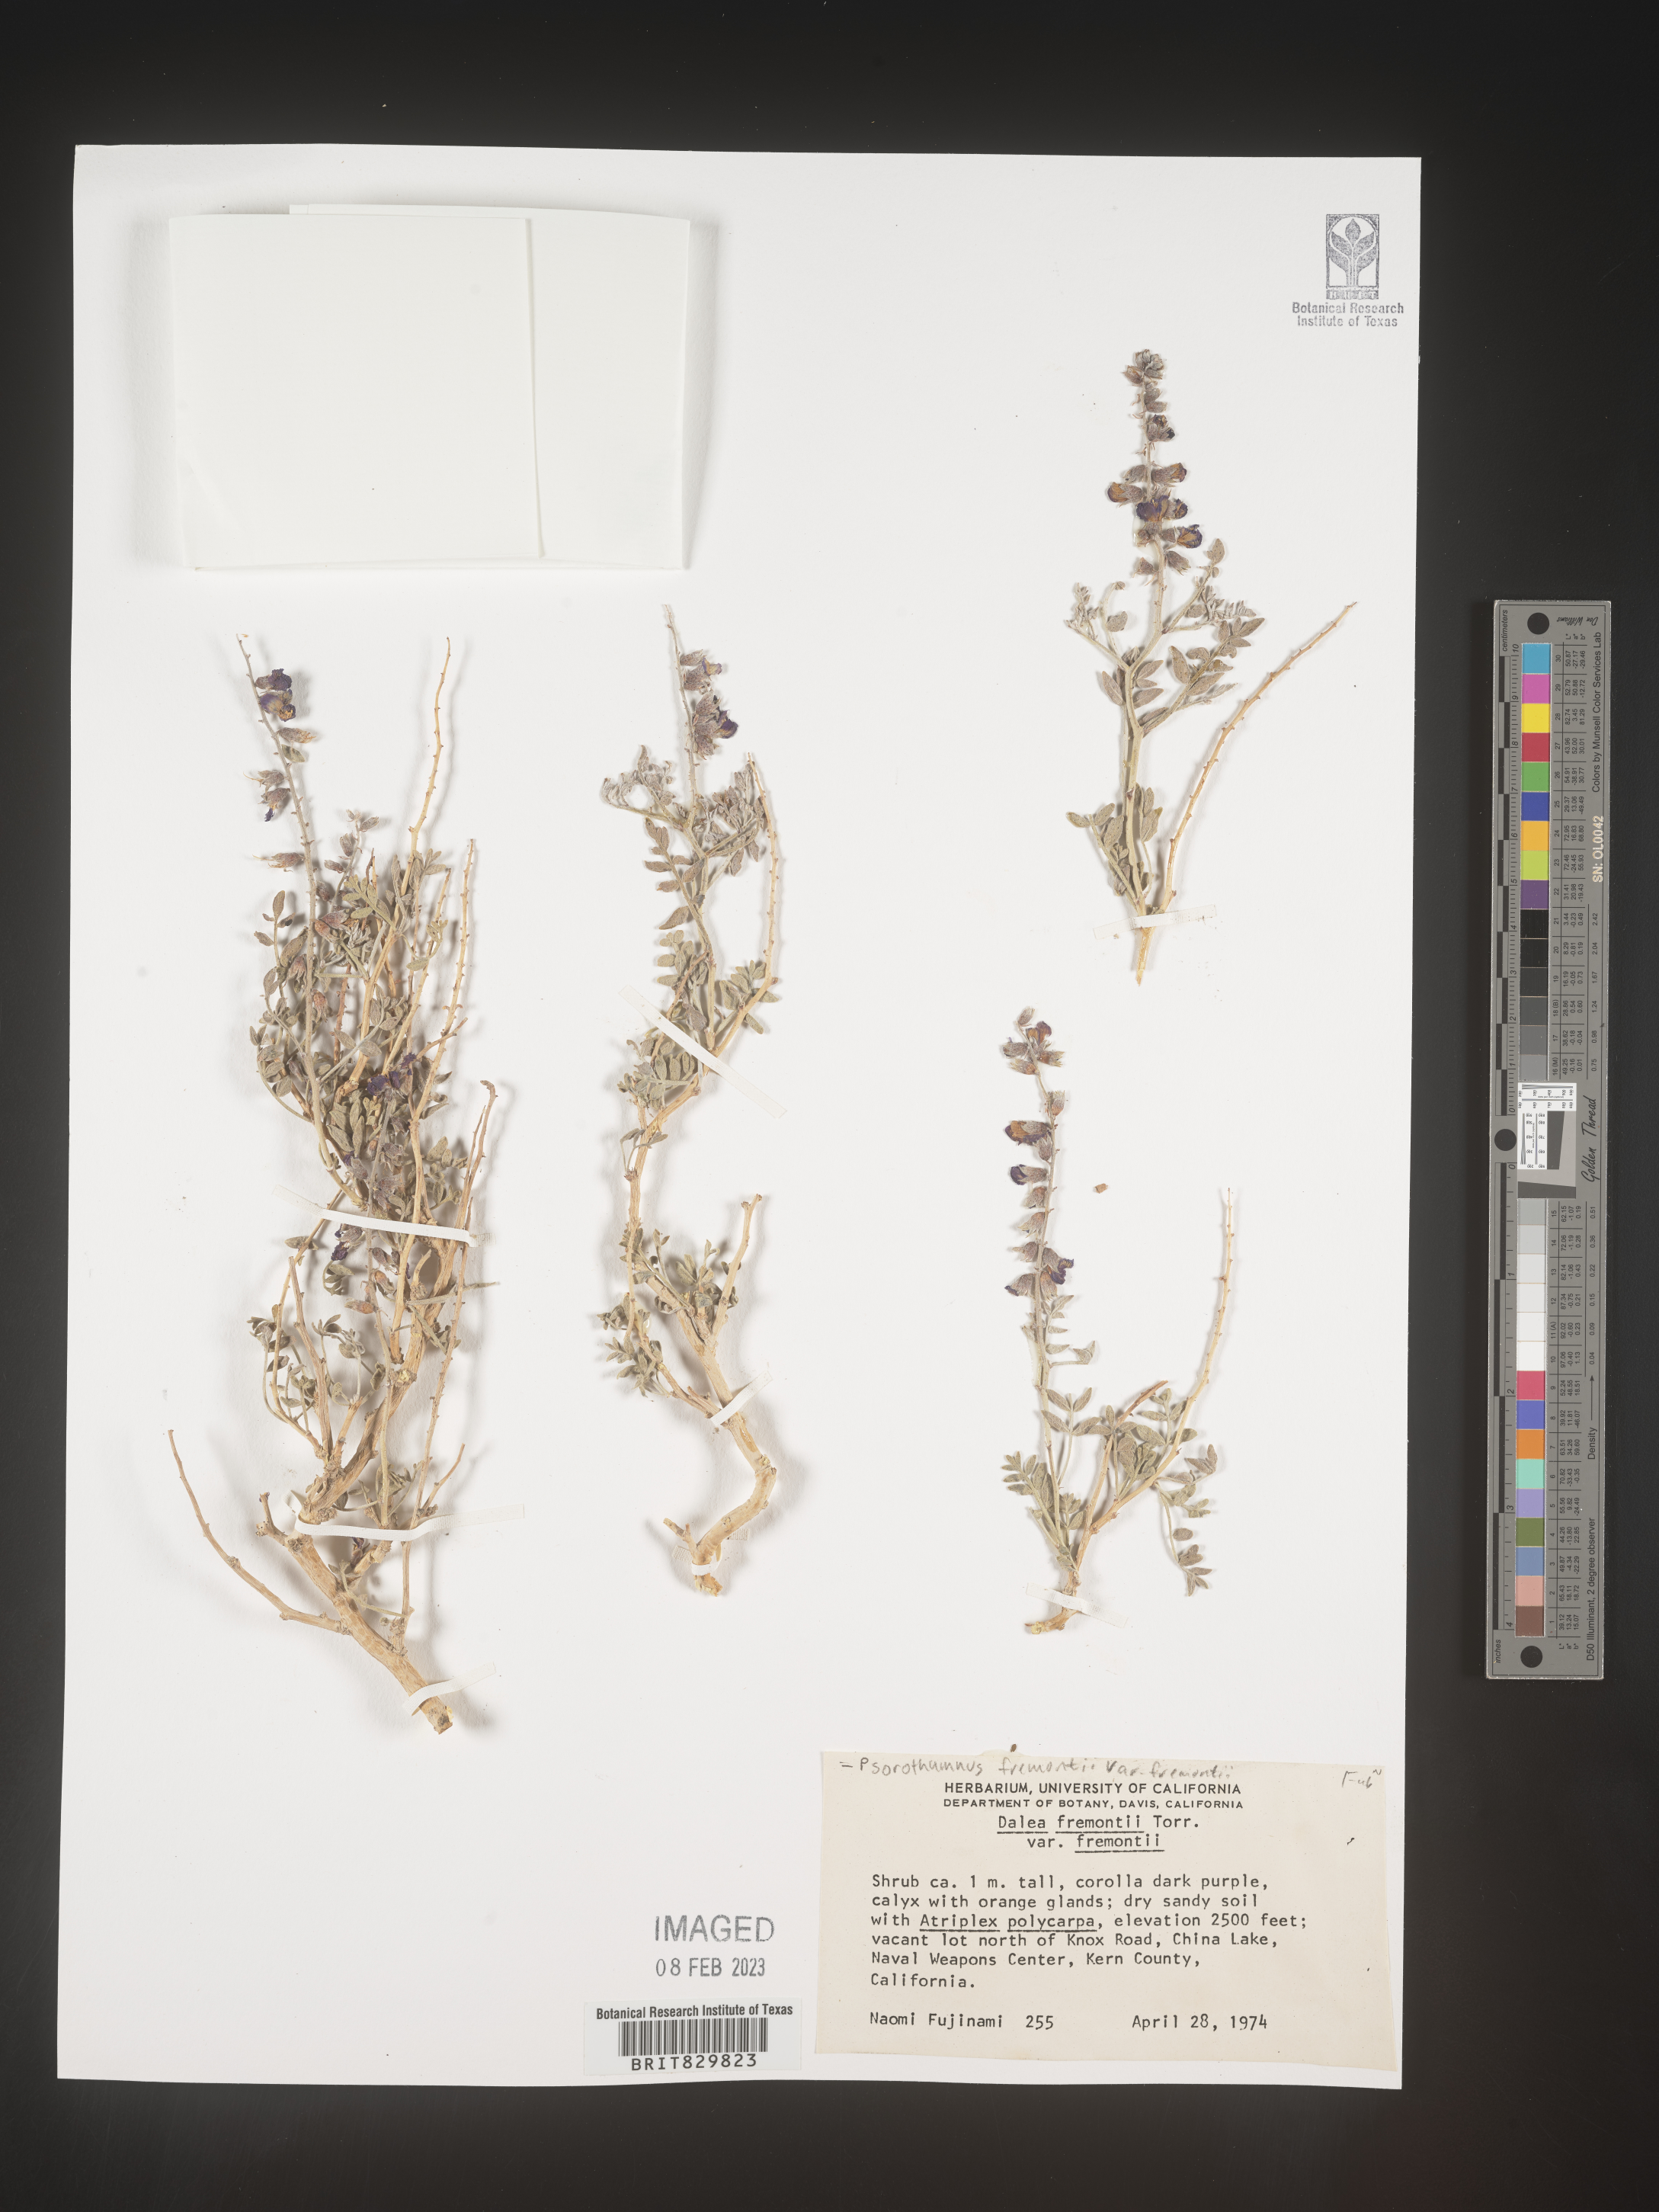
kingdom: Plantae
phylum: Tracheophyta
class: Magnoliopsida
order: Fabales
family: Fabaceae
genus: Psorothamnus
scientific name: Psorothamnus
